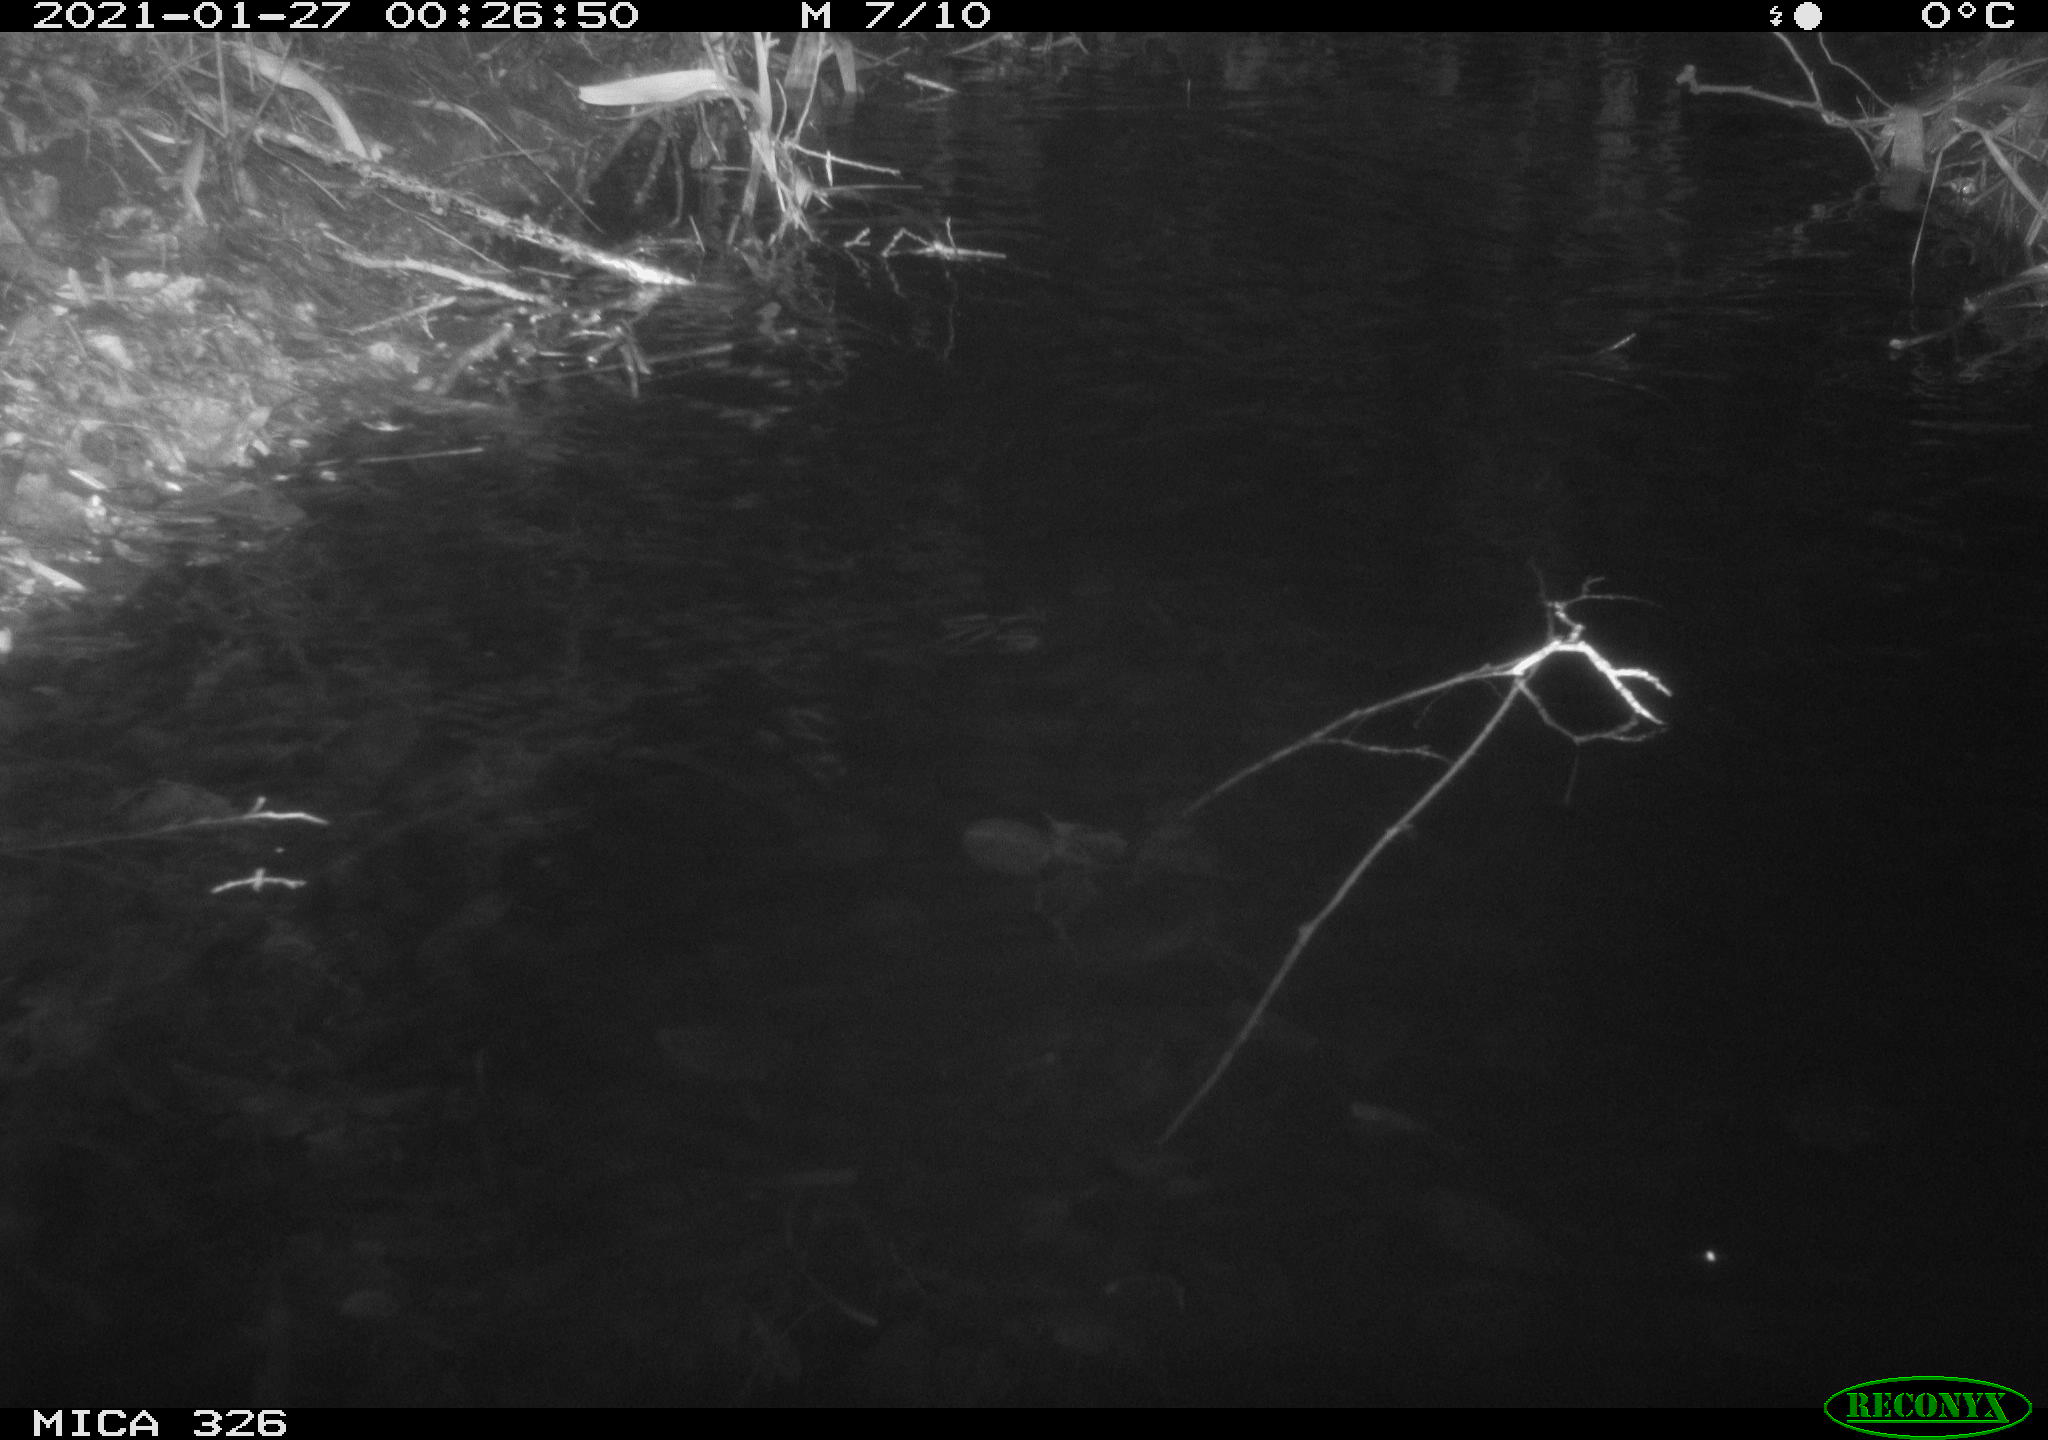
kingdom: Animalia
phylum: Chordata
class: Mammalia
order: Rodentia
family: Cricetidae
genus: Ondatra
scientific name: Ondatra zibethicus
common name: Muskrat
